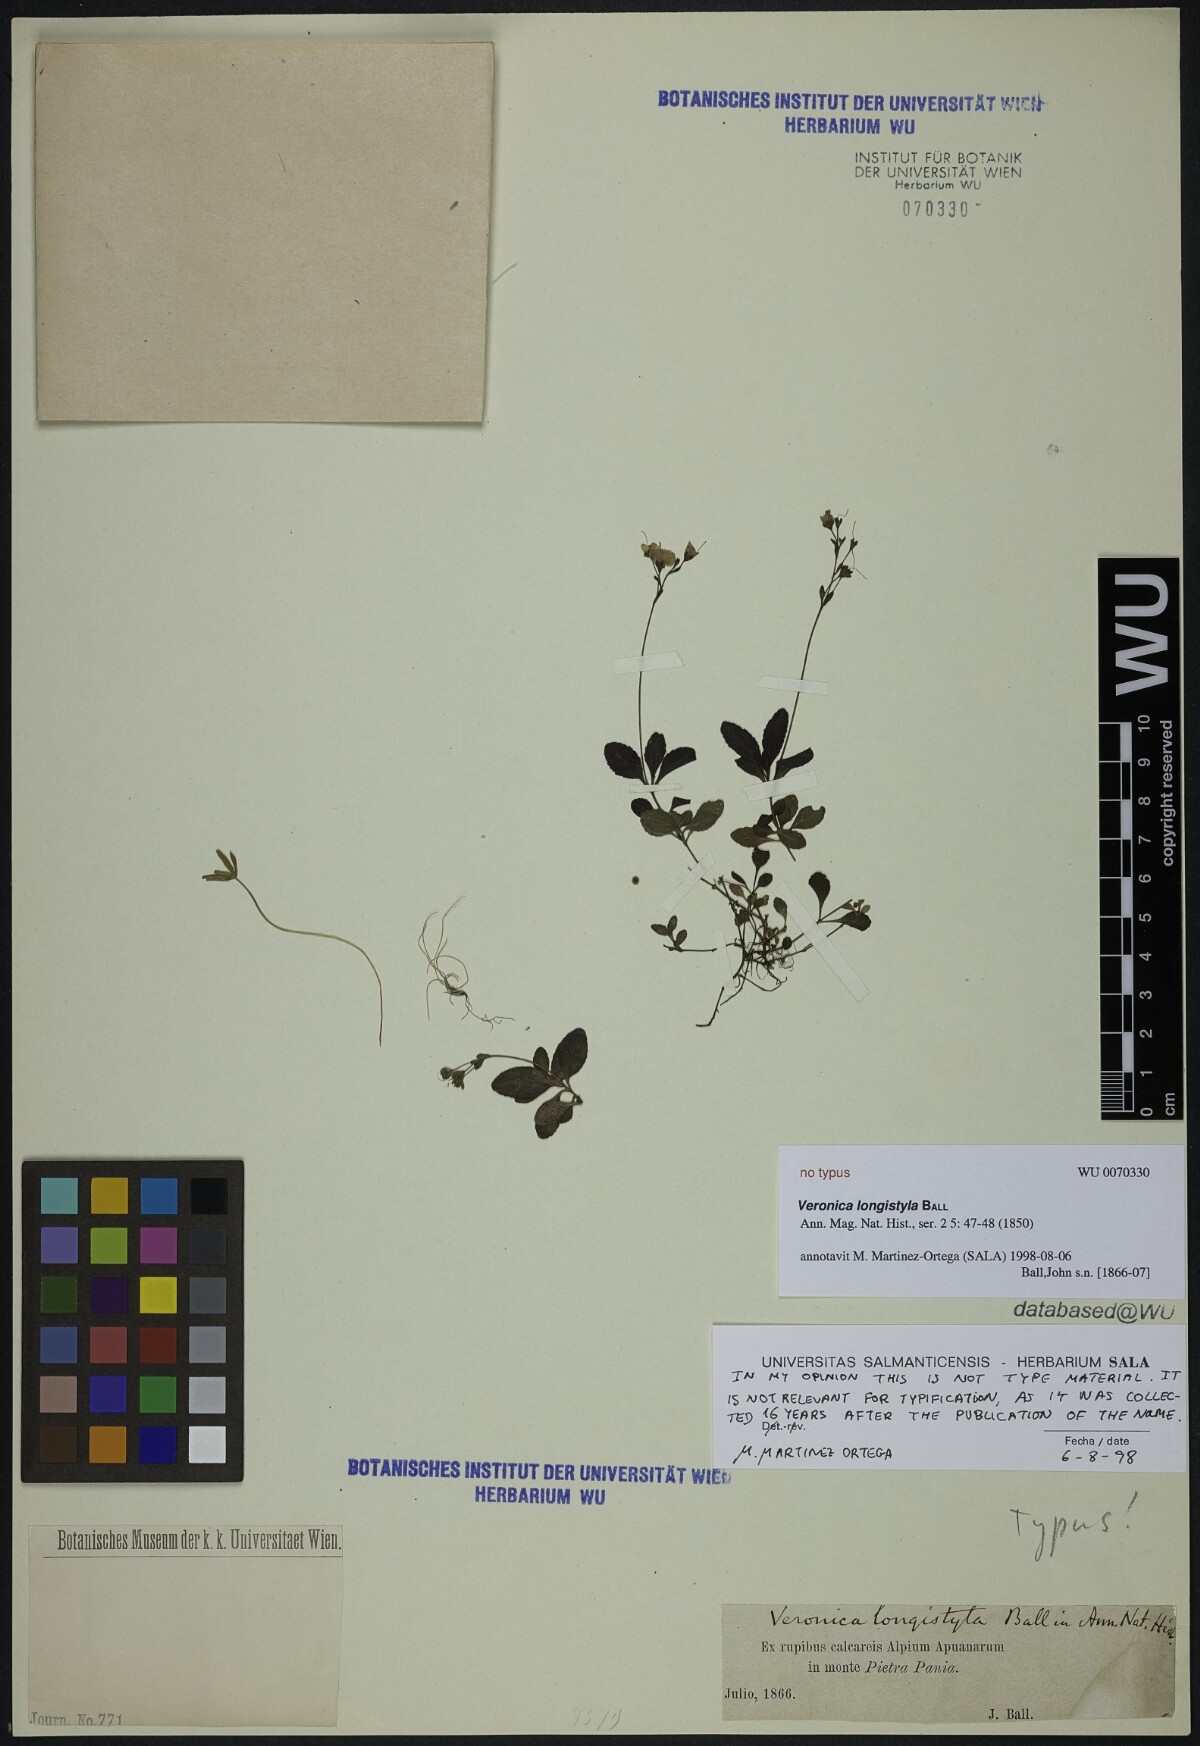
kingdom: Plantae
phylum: Tracheophyta
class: Magnoliopsida
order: Lamiales
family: Plantaginaceae
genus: Veronica
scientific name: Veronica aphylla
